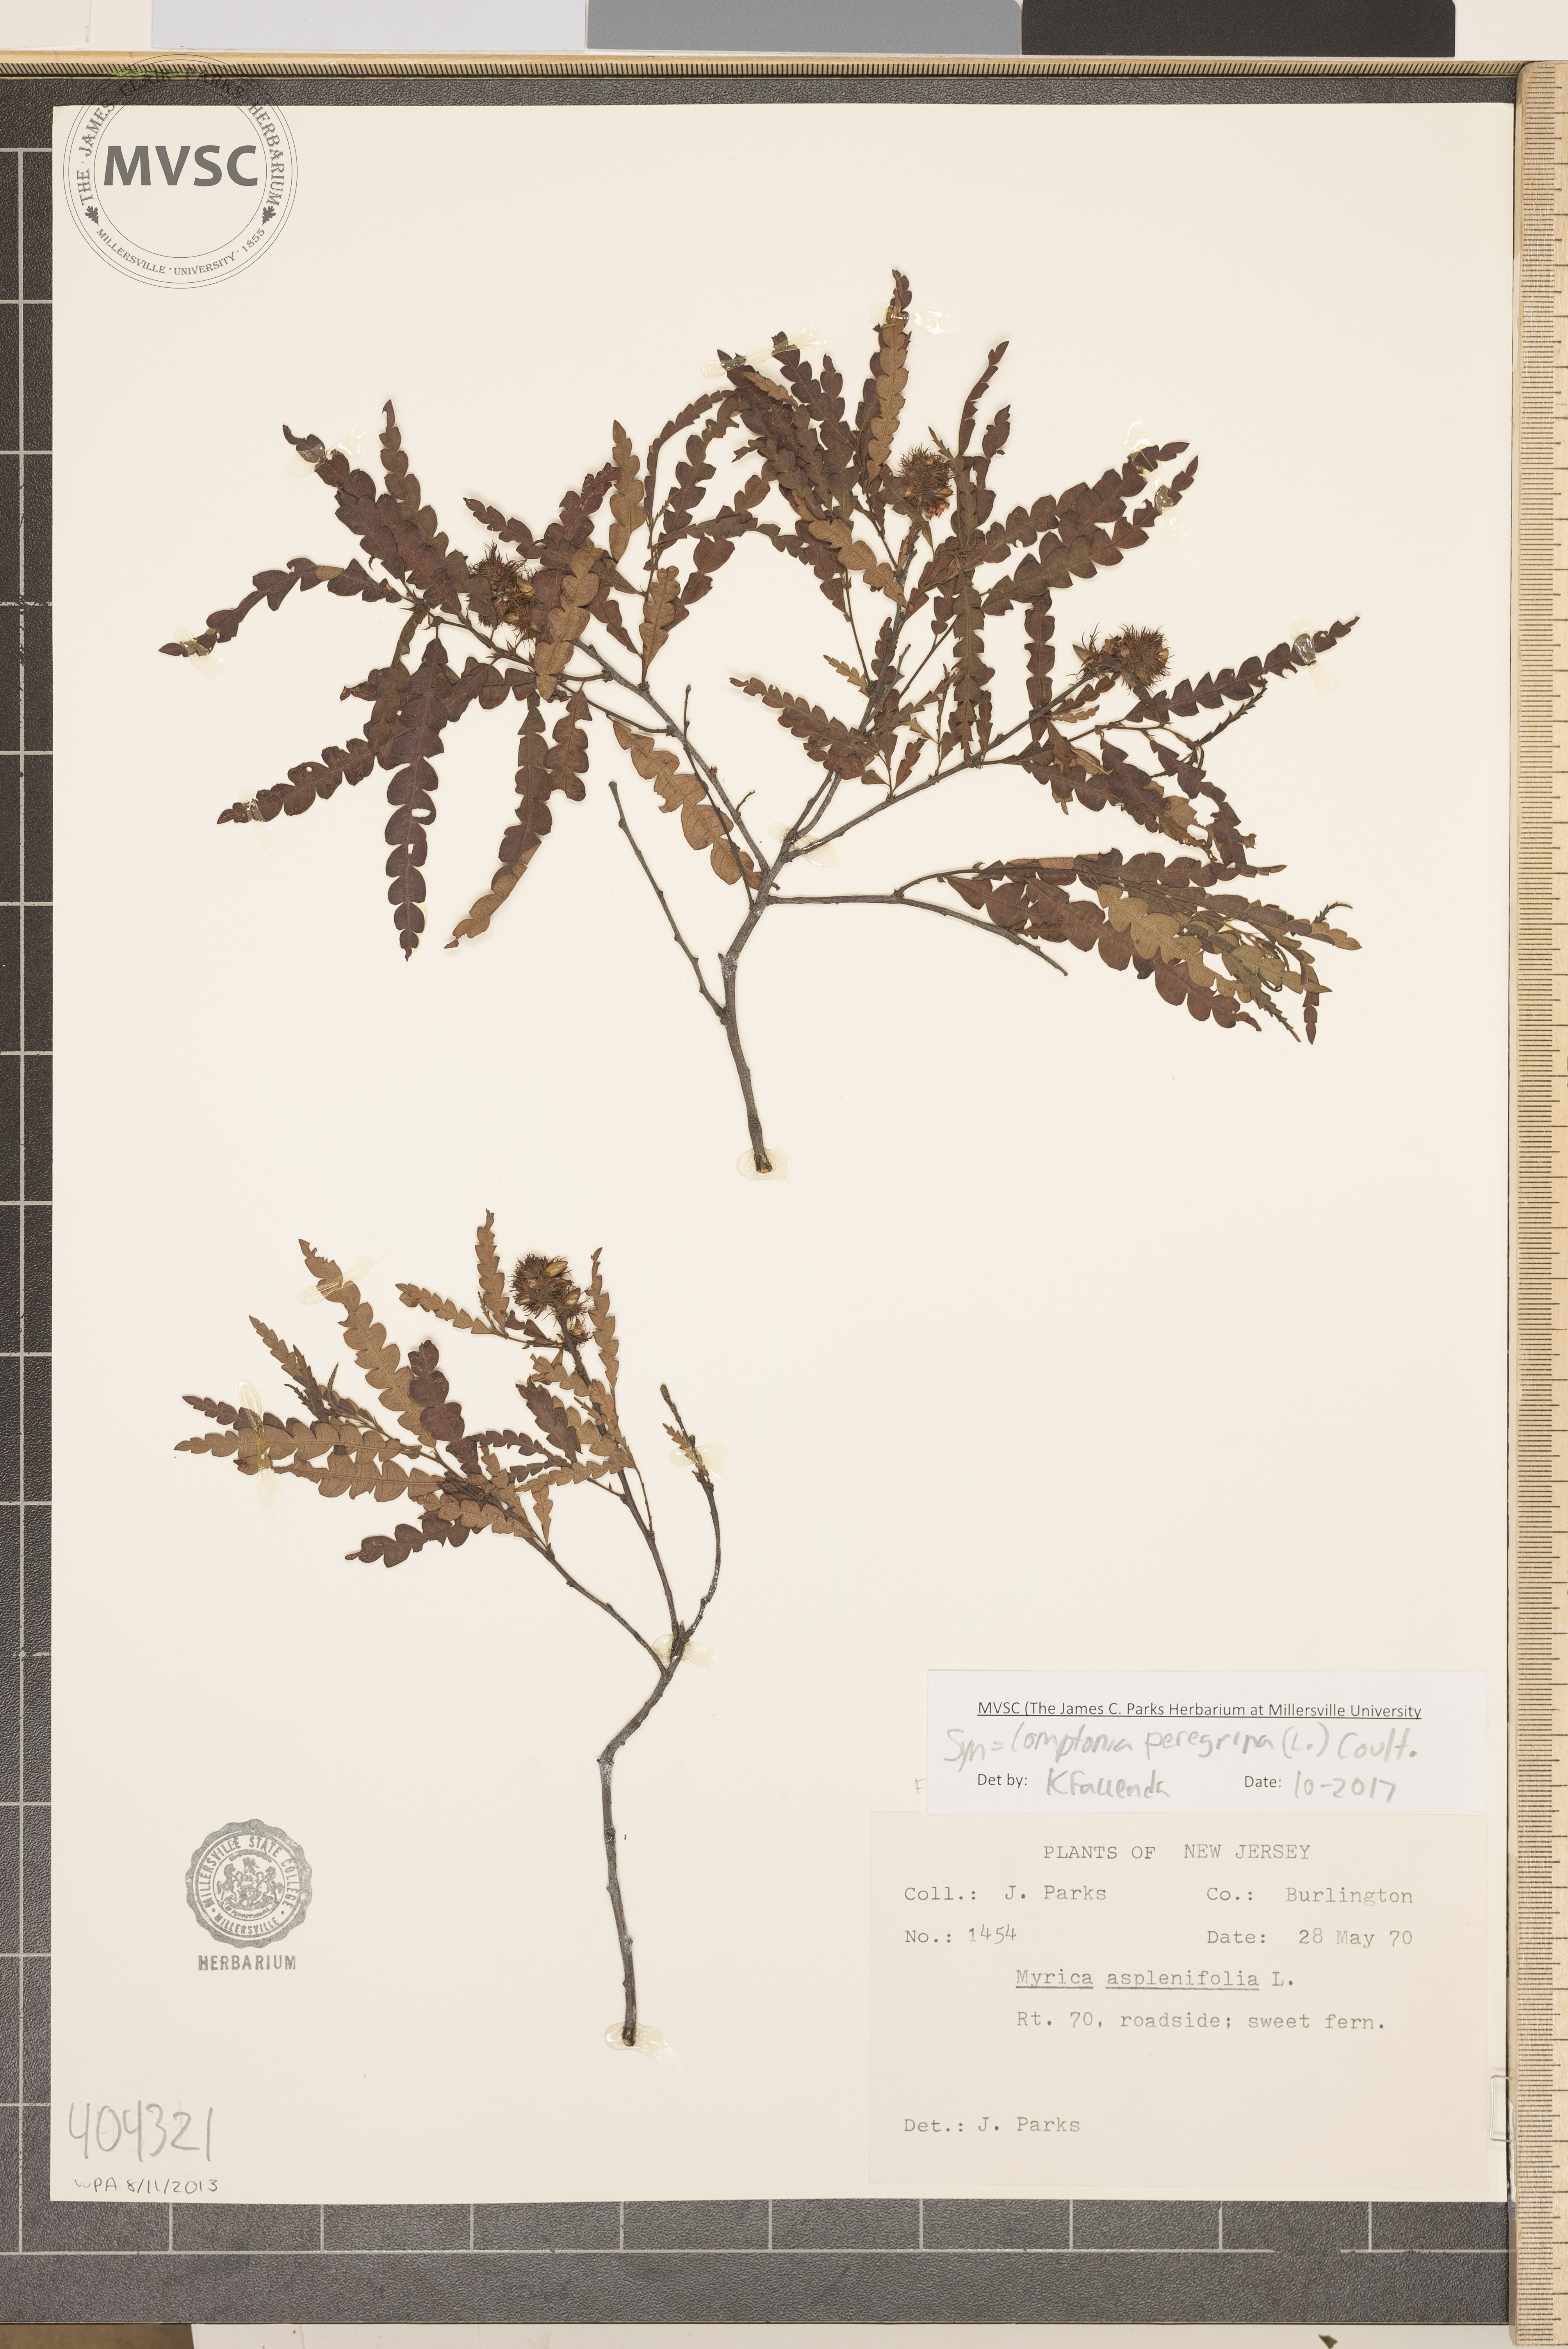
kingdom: Plantae
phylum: Tracheophyta
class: Magnoliopsida
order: Fagales
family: Myricaceae
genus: Comptonia
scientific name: Comptonia peregrina
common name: Sweetfern
